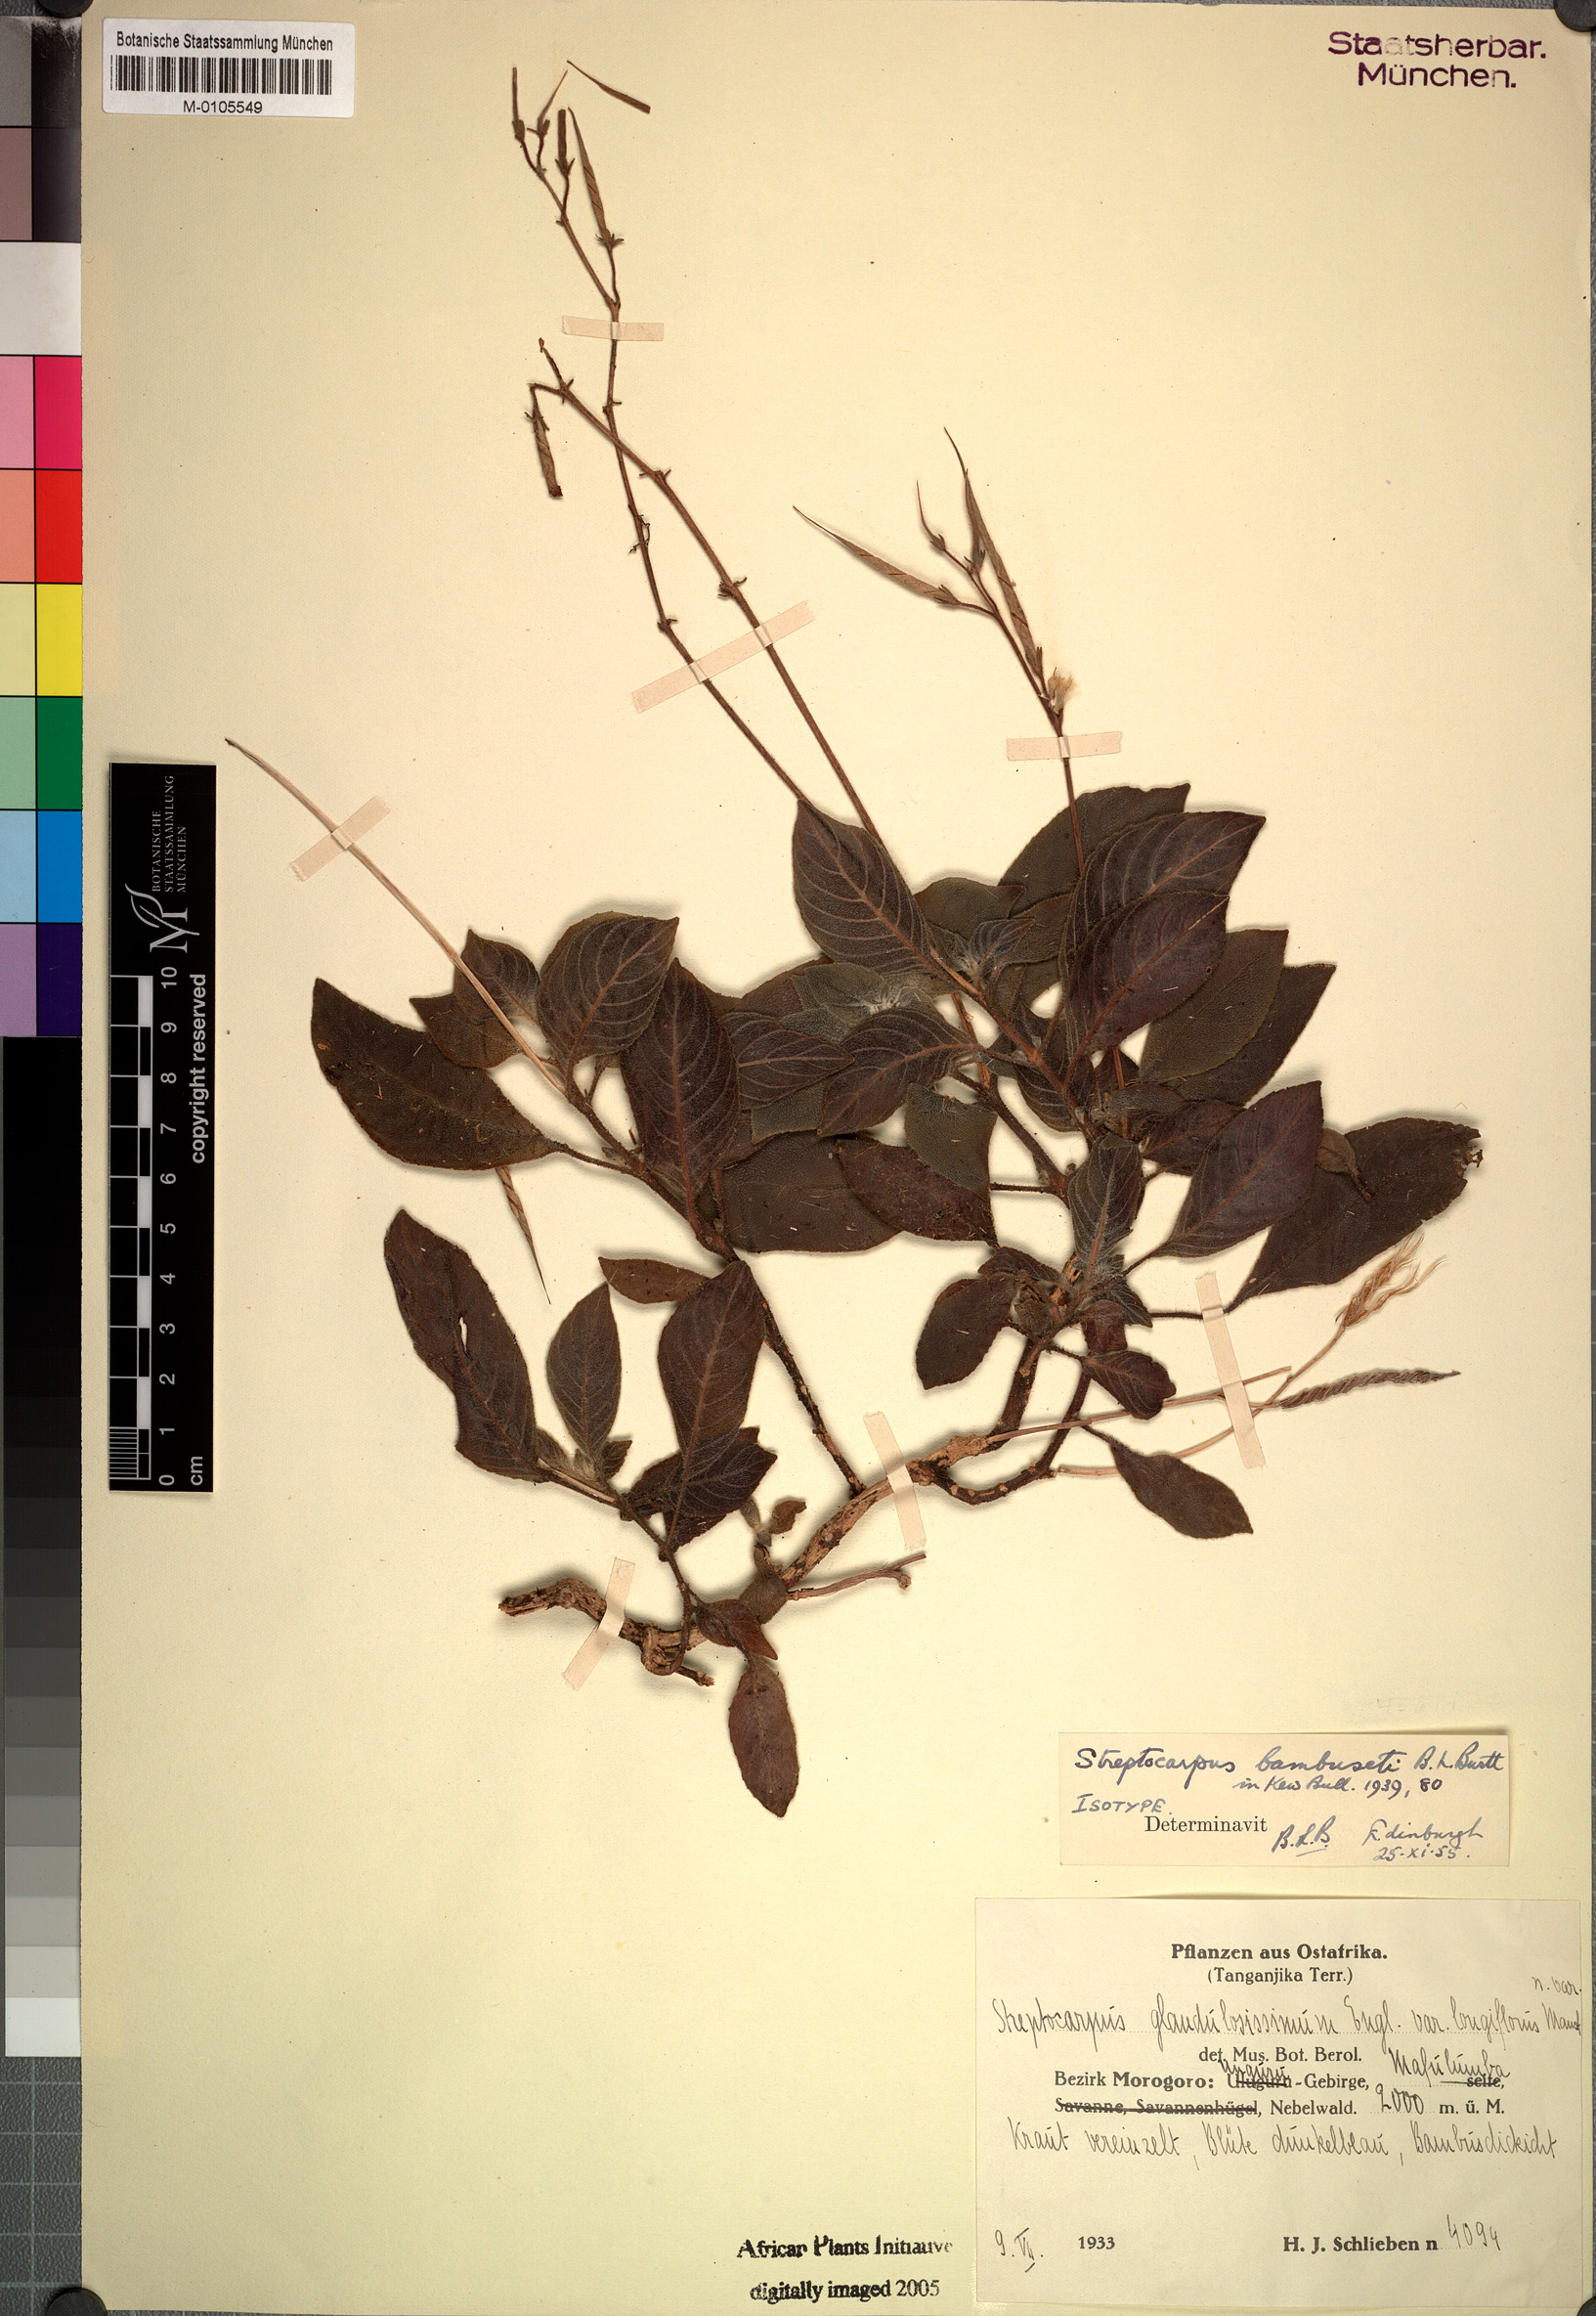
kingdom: Plantae
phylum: Tracheophyta
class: Magnoliopsida
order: Lamiales
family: Gesneriaceae
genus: Streptocarpus
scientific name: Streptocarpus bambuseti
